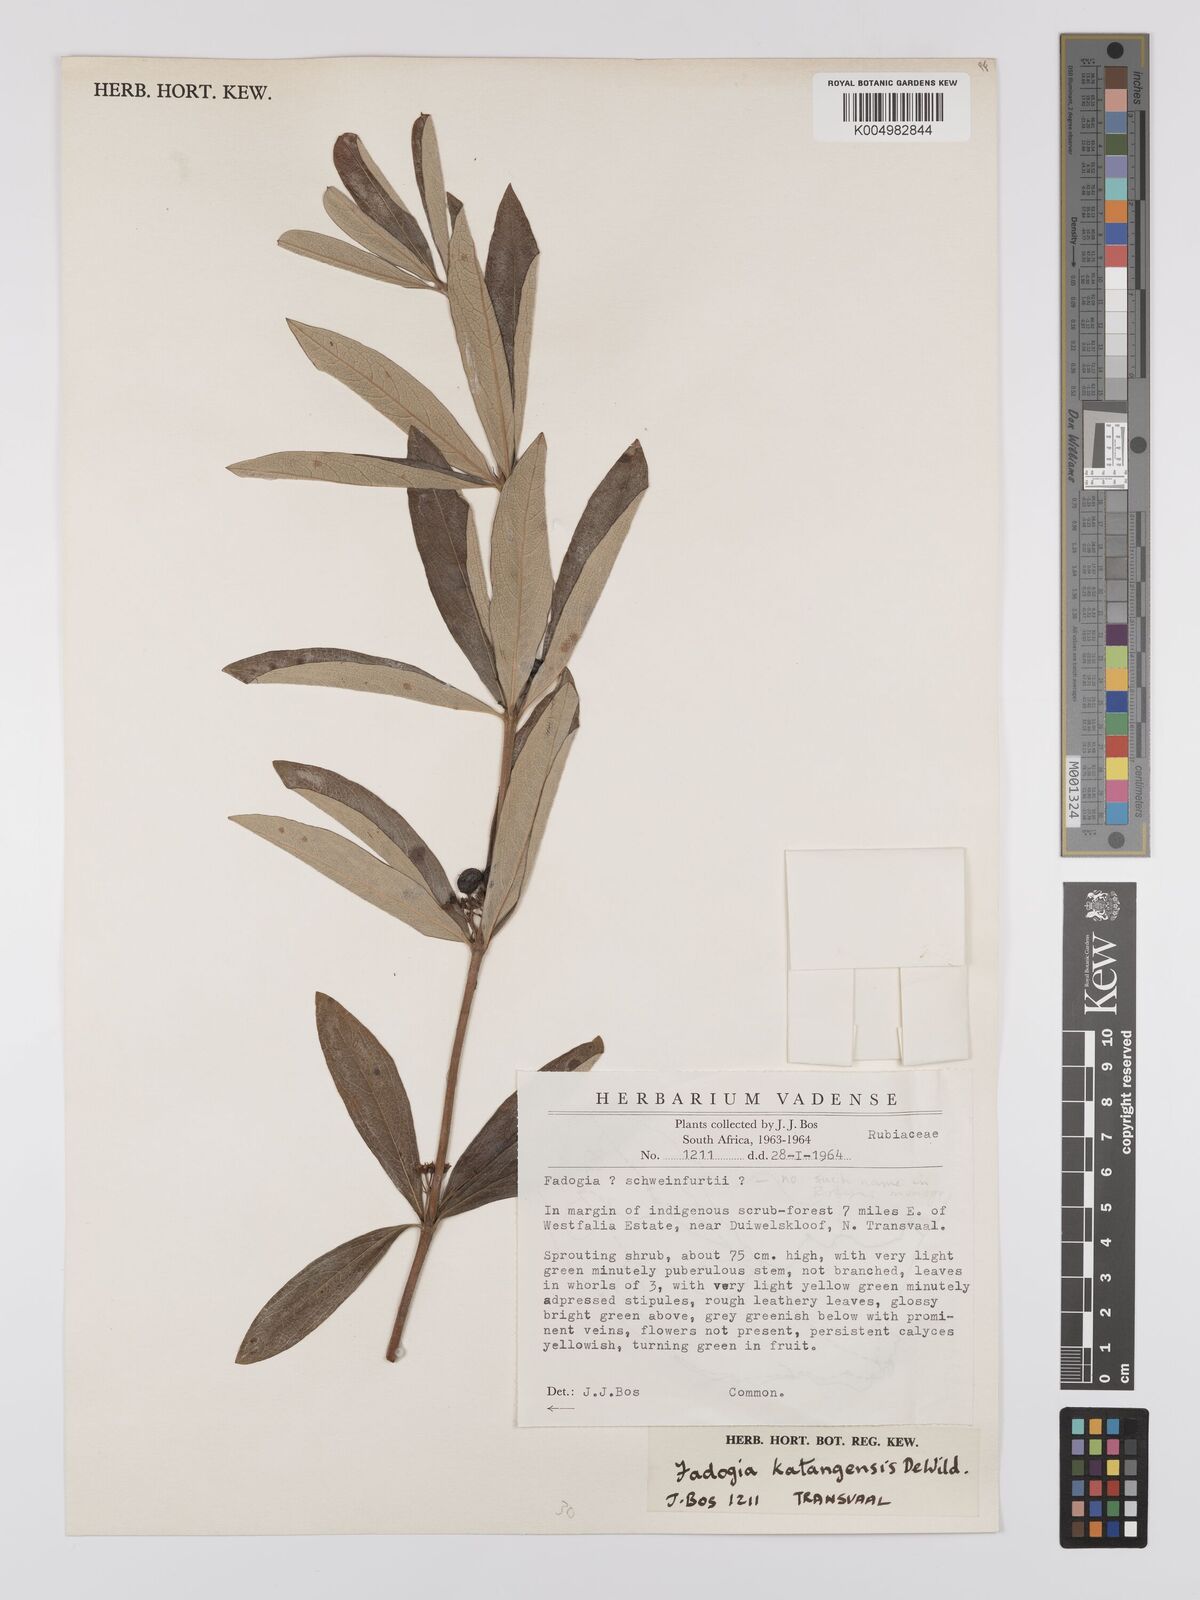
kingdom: Plantae
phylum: Tracheophyta
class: Magnoliopsida
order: Gentianales
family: Rubiaceae
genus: Fadogia
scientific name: Fadogia triphylla
